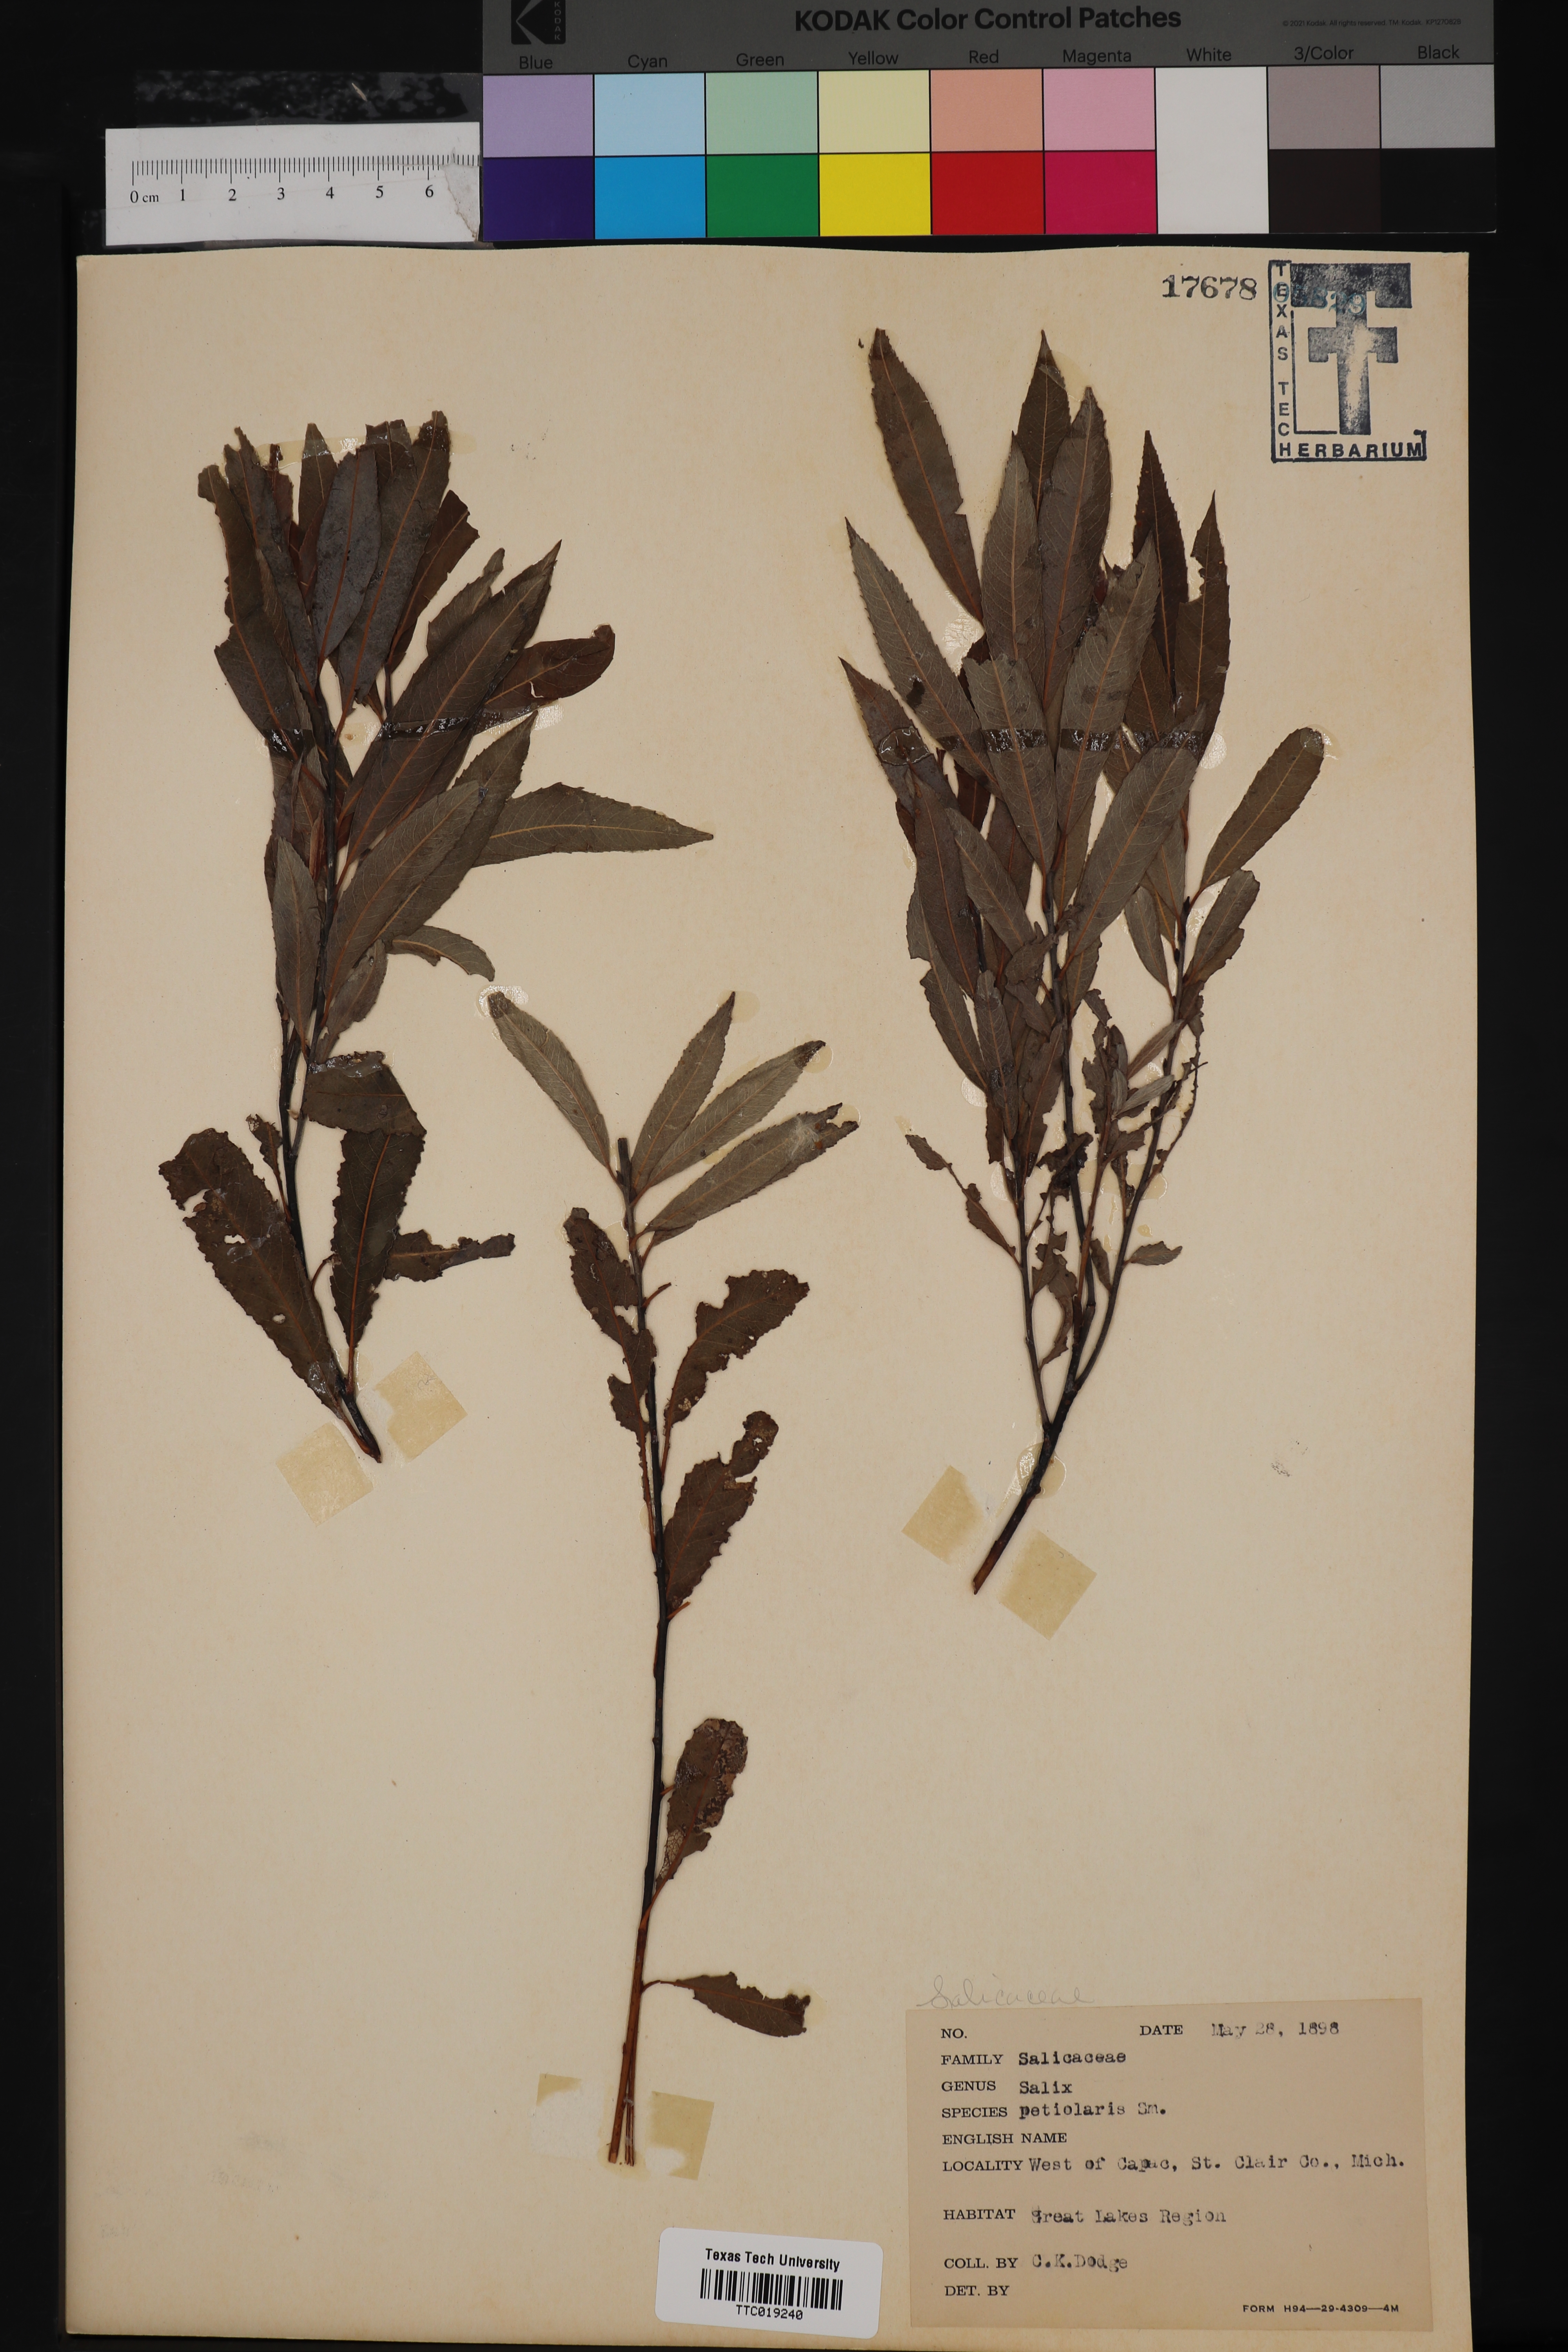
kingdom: Plantae
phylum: Tracheophyta
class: Magnoliopsida
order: Malpighiales
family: Salicaceae
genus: Salix
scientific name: Salix petiolaris
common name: Slender willow
